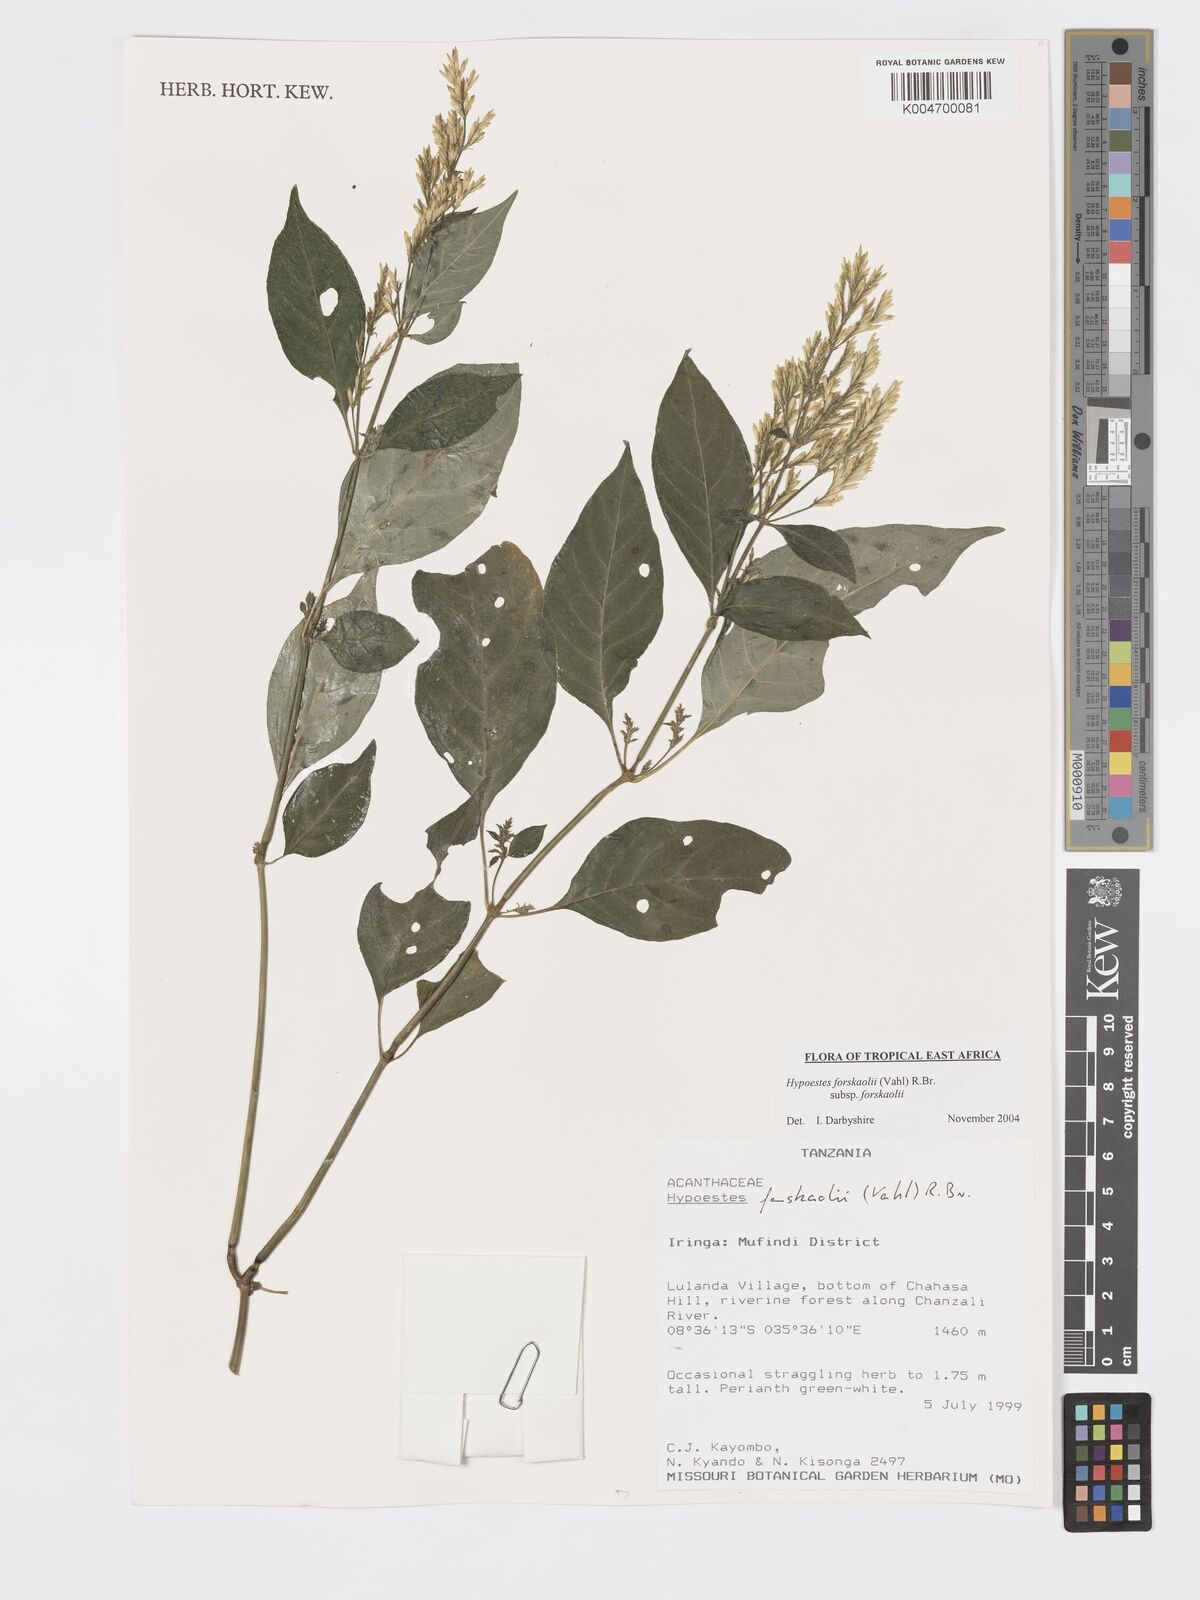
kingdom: Plantae
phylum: Tracheophyta
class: Magnoliopsida
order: Lamiales
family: Acanthaceae
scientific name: Acanthaceae
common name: Acanthaceae
